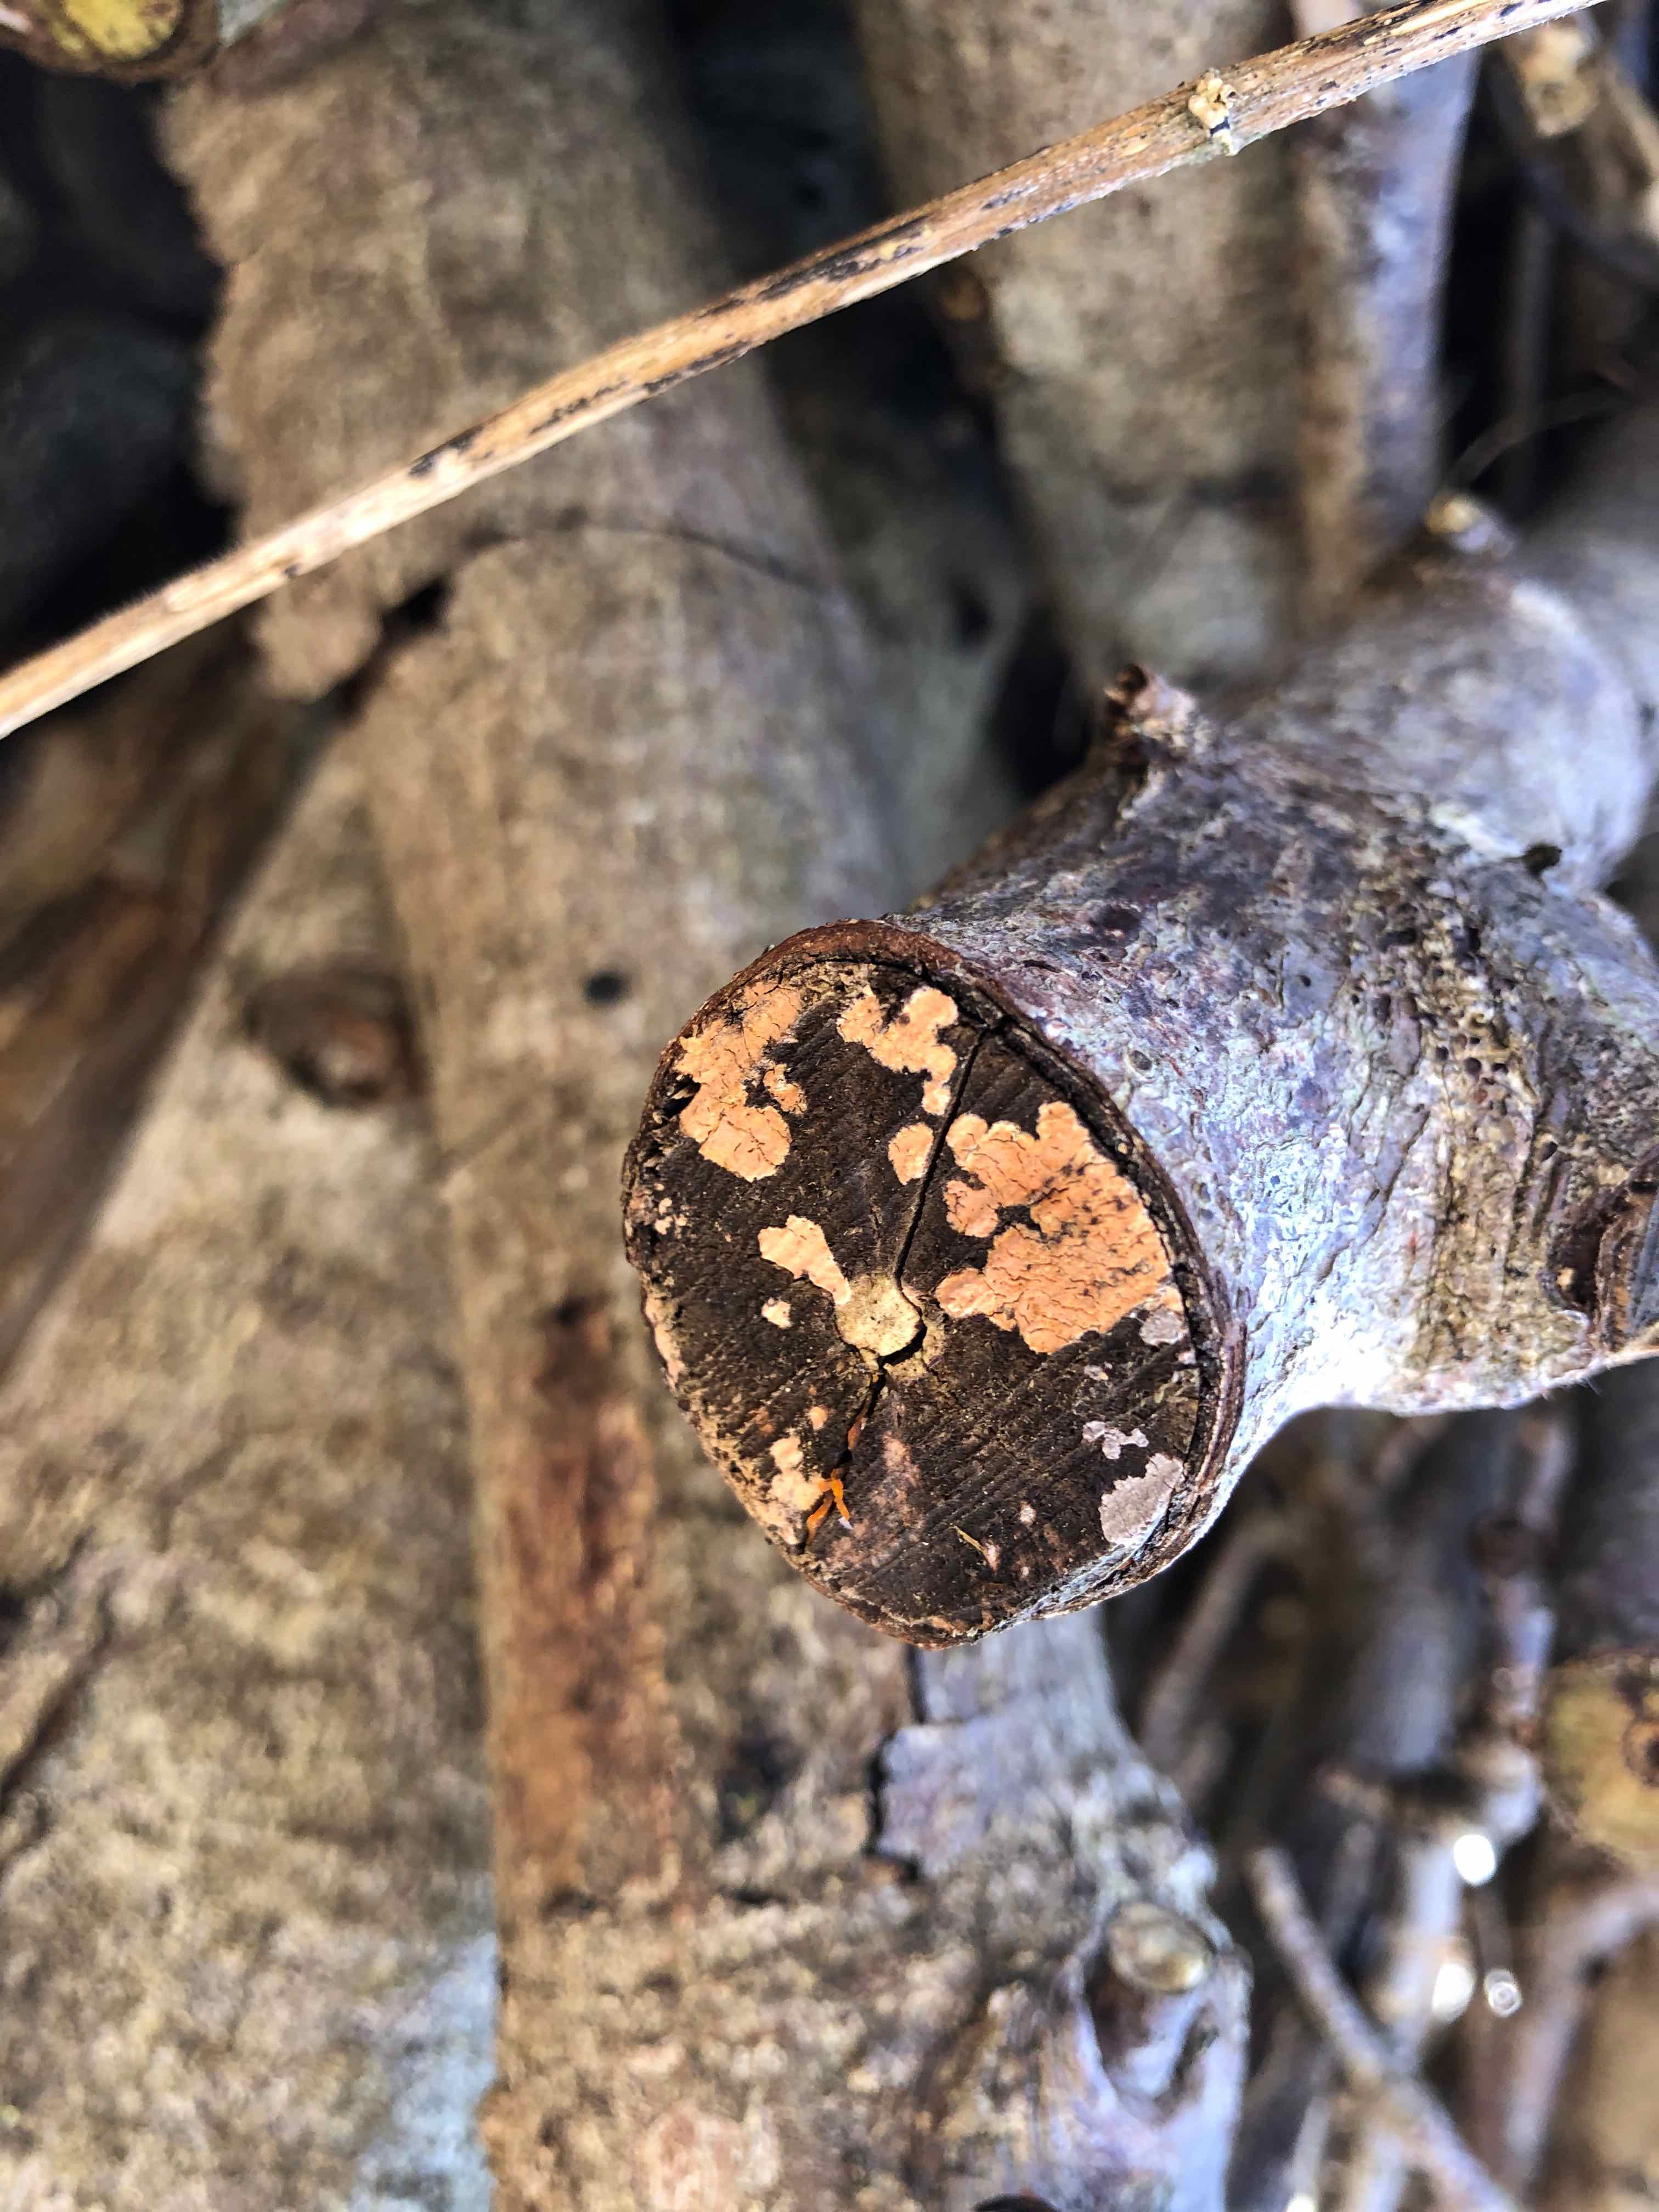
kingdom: Fungi
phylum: Basidiomycota
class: Agaricomycetes
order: Russulales
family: Peniophoraceae
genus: Peniophora
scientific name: Peniophora incarnata
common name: laksefarvet voksskind
